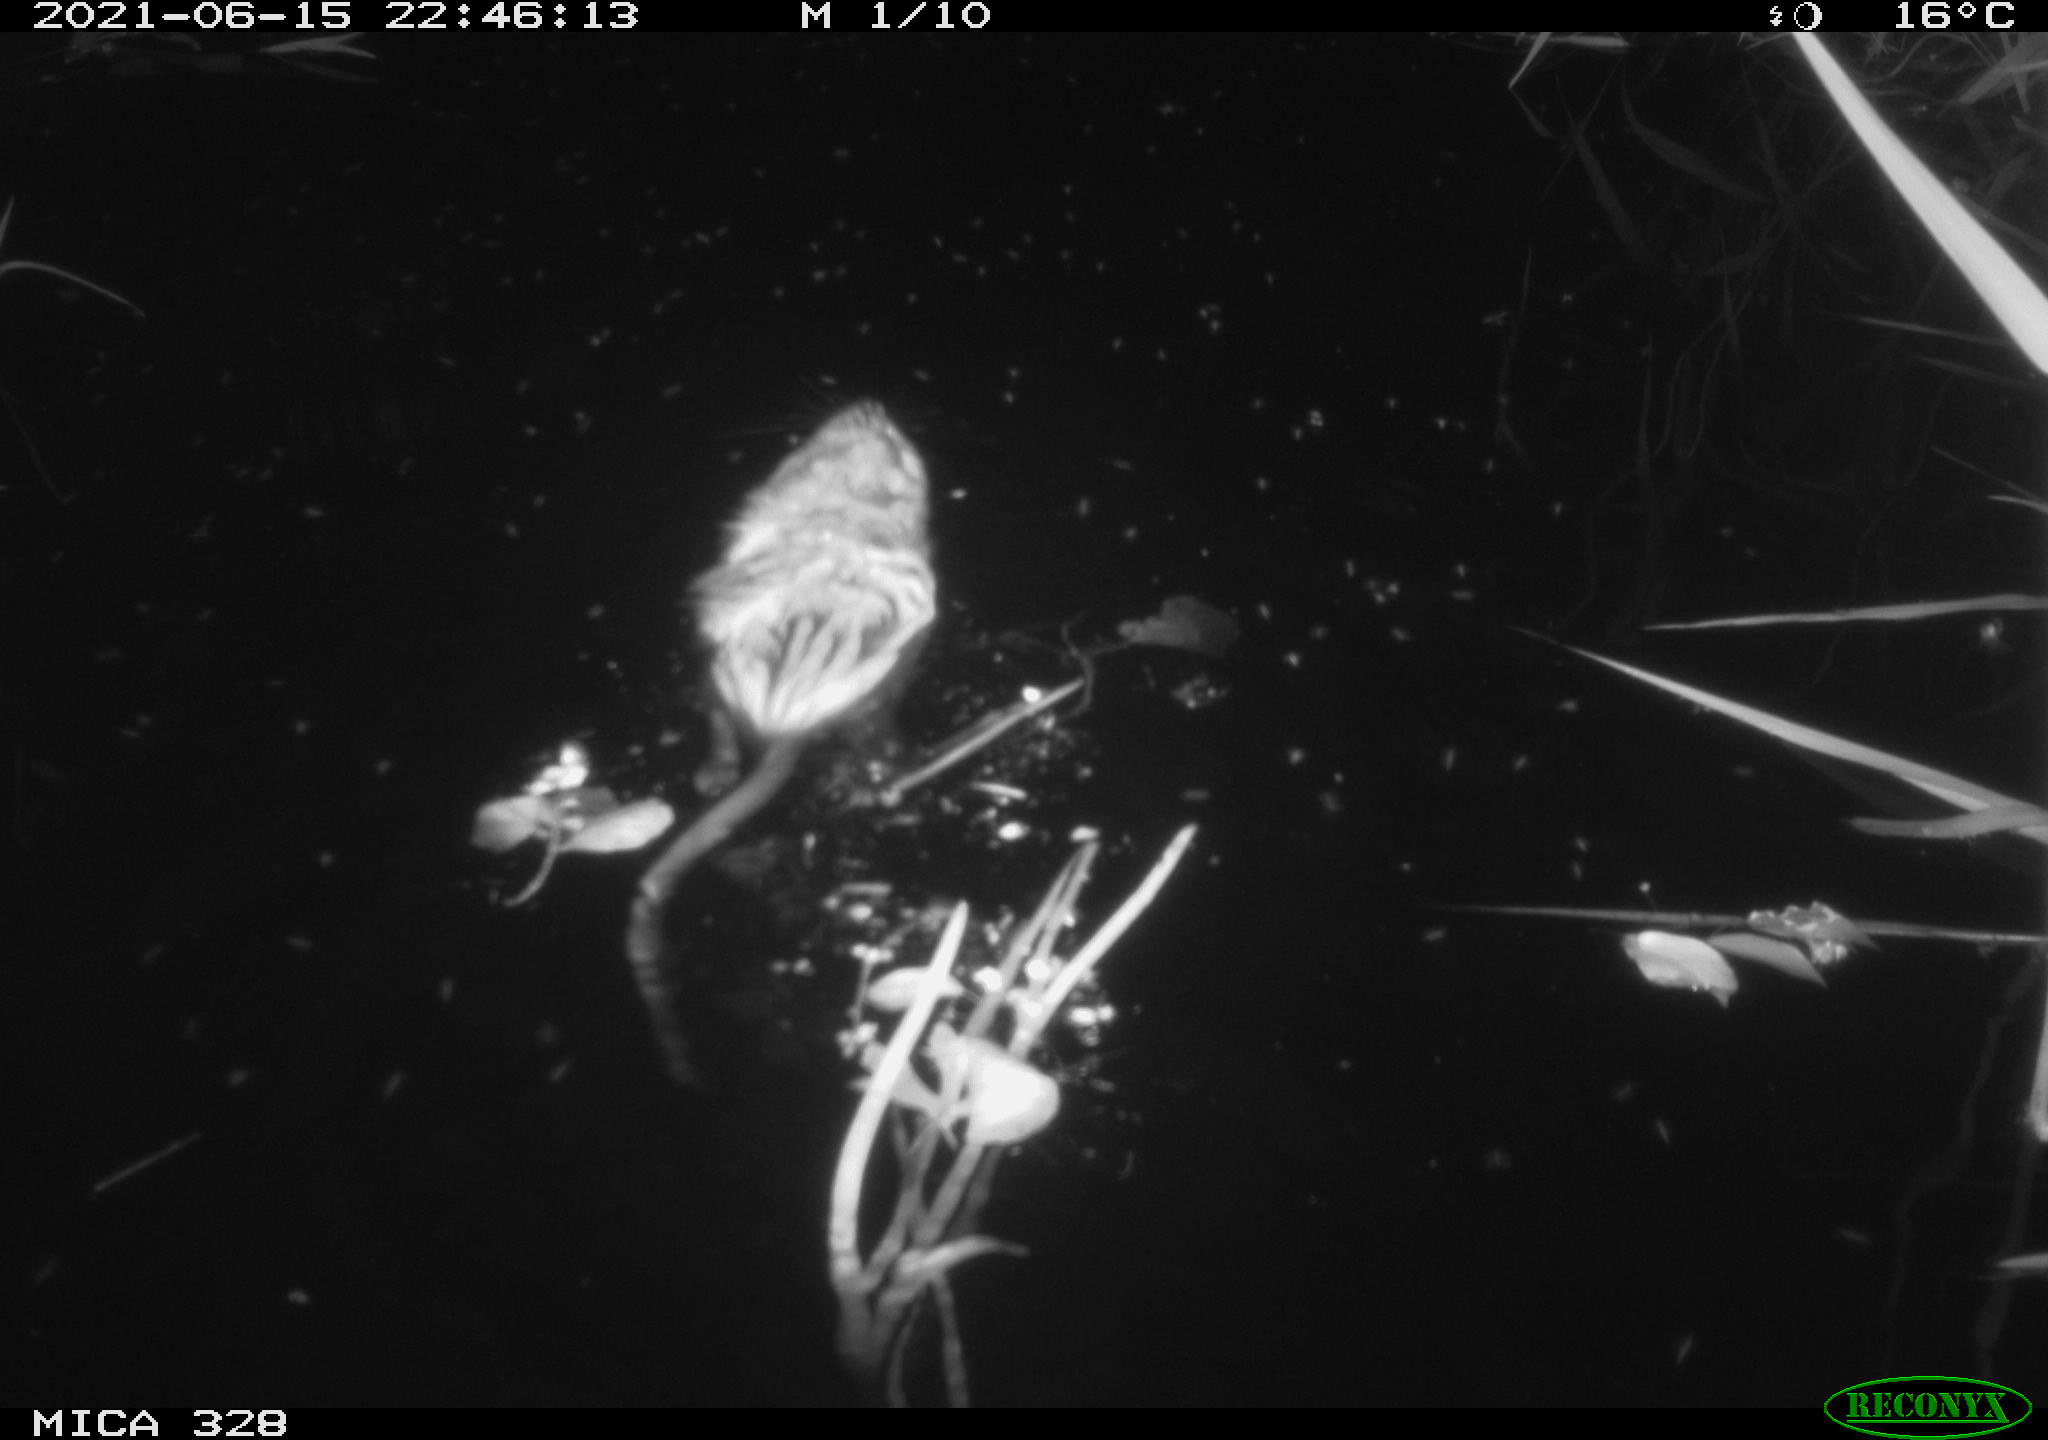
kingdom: Animalia
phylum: Chordata
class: Mammalia
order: Rodentia
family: Cricetidae
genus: Ondatra
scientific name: Ondatra zibethicus
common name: Muskrat
